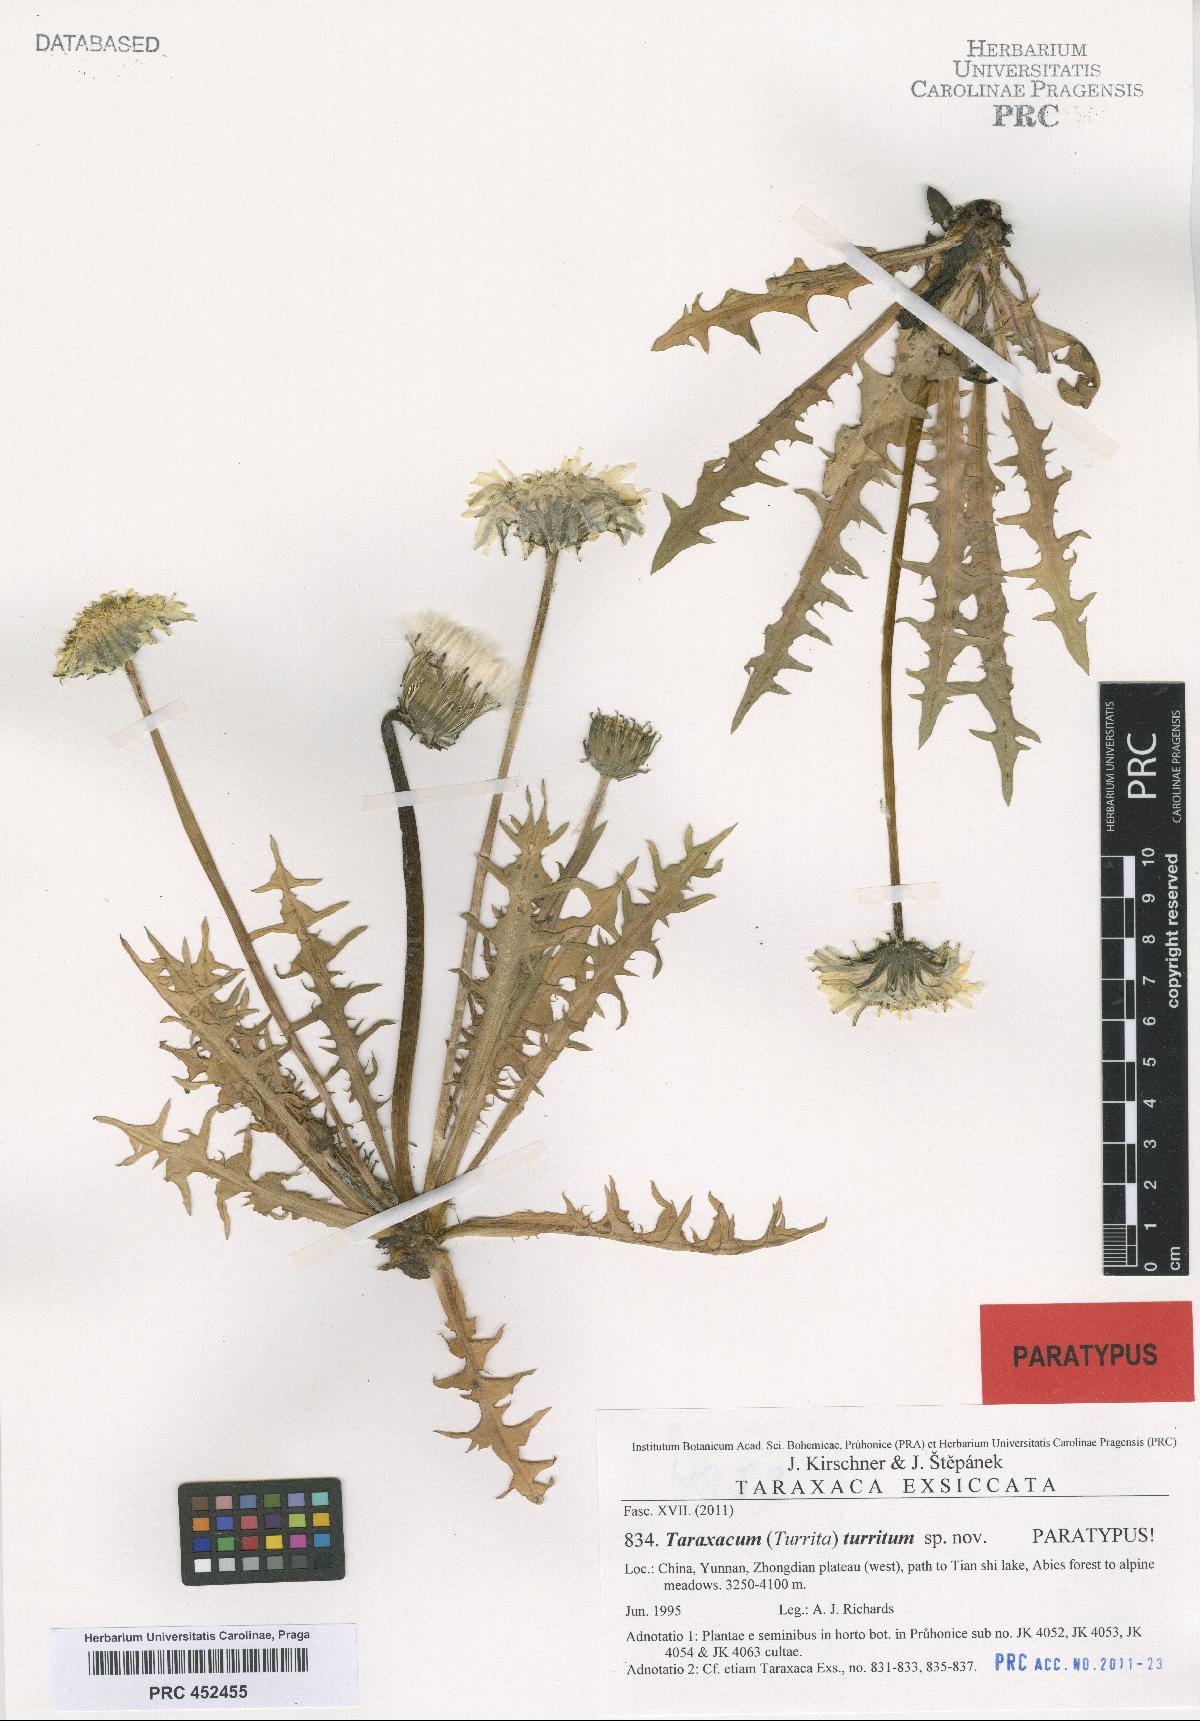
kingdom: Plantae
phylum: Tracheophyta
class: Magnoliopsida
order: Asterales
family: Asteraceae
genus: Taraxacum
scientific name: Taraxacum turritum
